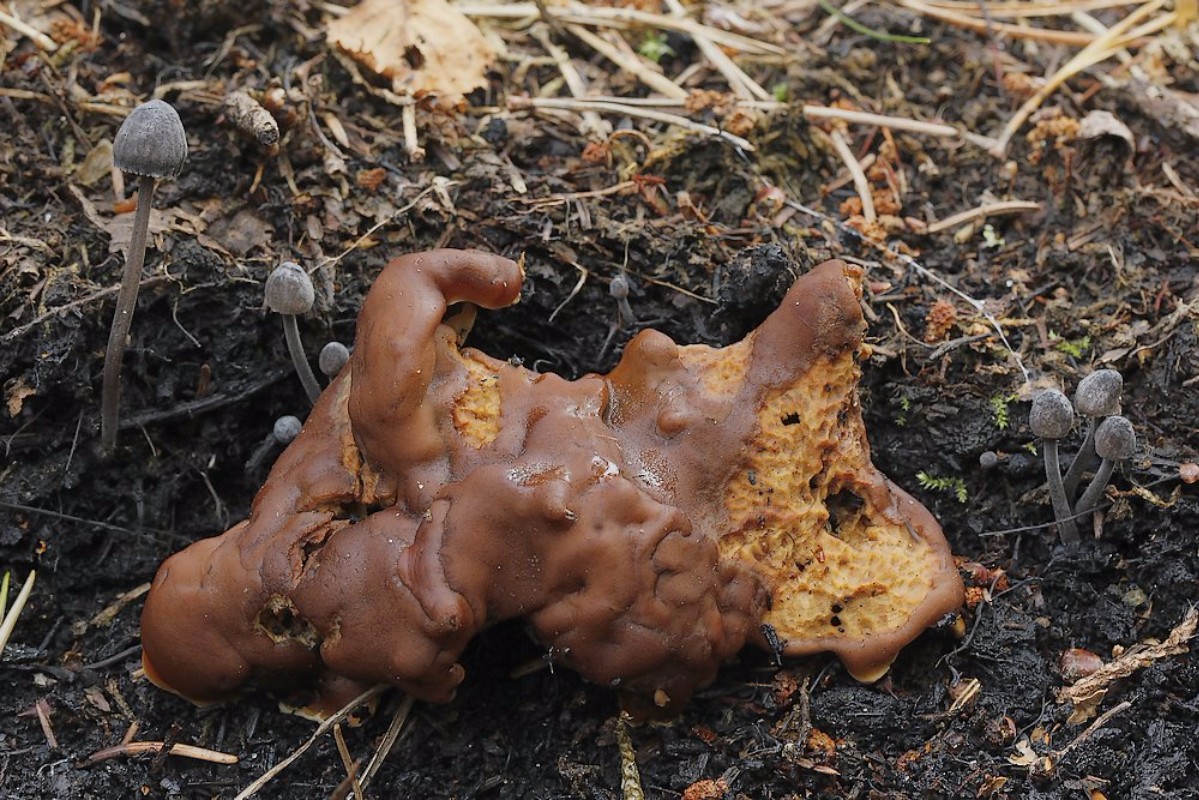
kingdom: Fungi
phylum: Ascomycota
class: Pezizomycetes
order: Pezizales
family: Rhizinaceae
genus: Rhizina
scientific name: Rhizina undulata
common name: rodmorkel
